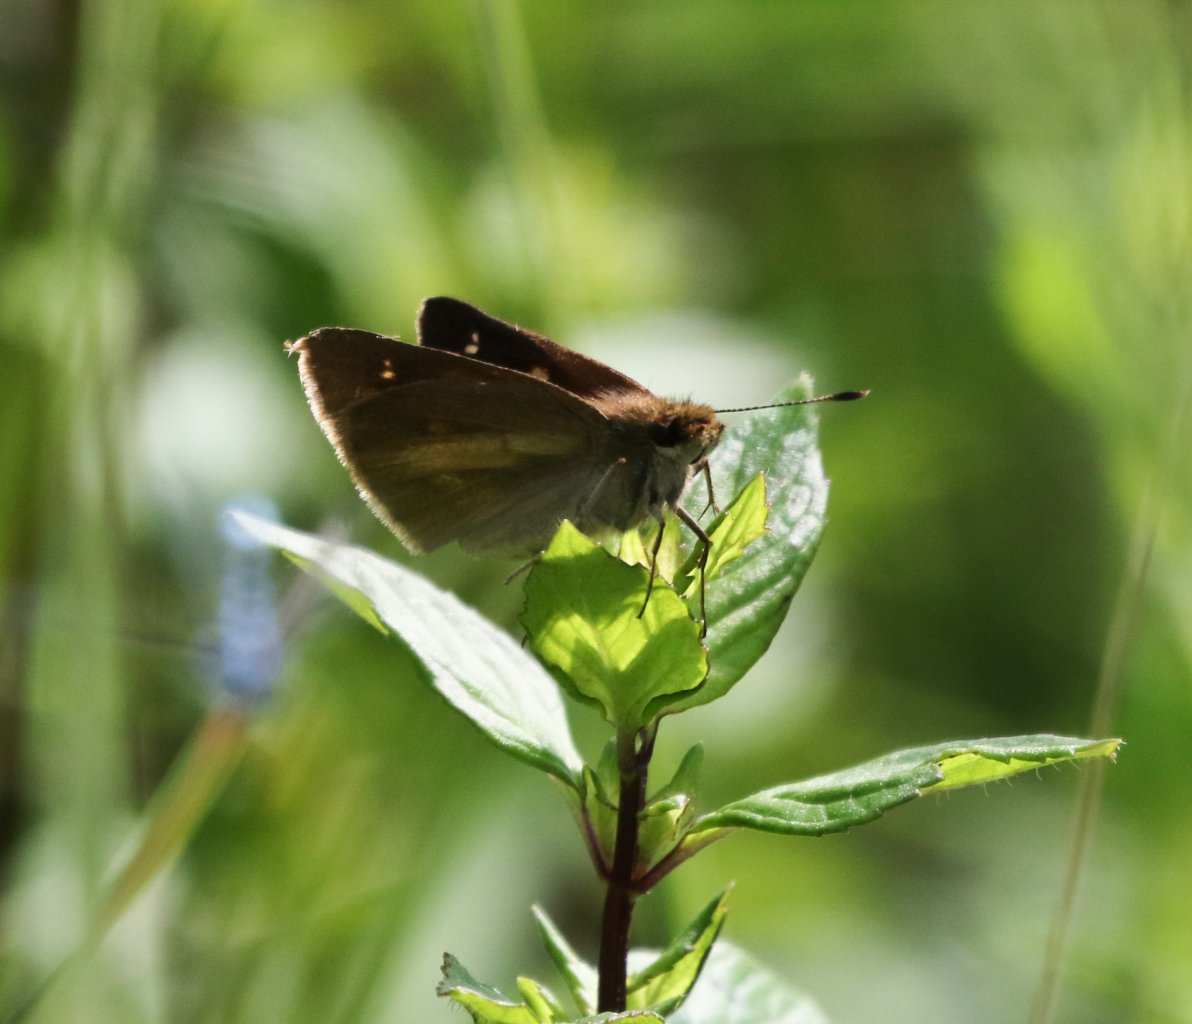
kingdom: Animalia
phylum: Arthropoda
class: Insecta
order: Lepidoptera
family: Hesperiidae
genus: Euphyes
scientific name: Euphyes dion
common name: Dion Skipper
